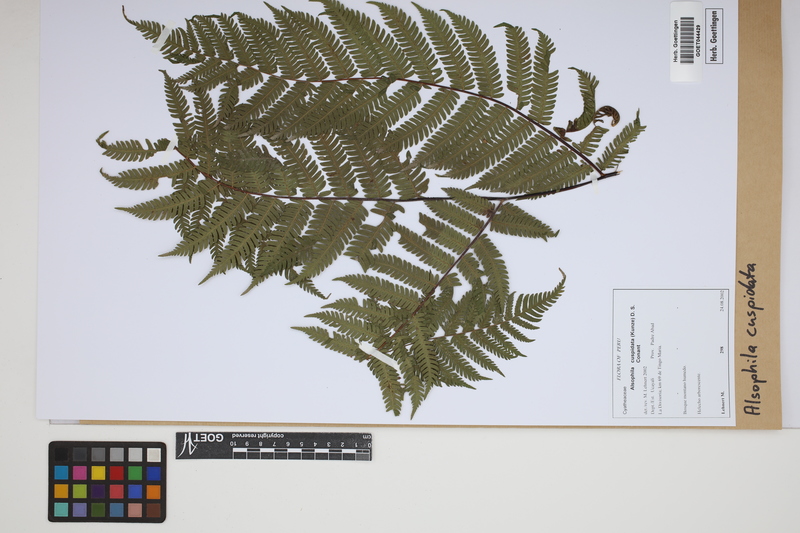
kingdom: Plantae
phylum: Tracheophyta
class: Polypodiopsida
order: Cyatheales
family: Cyatheaceae
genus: Alsophila
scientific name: Alsophila cuspidata
